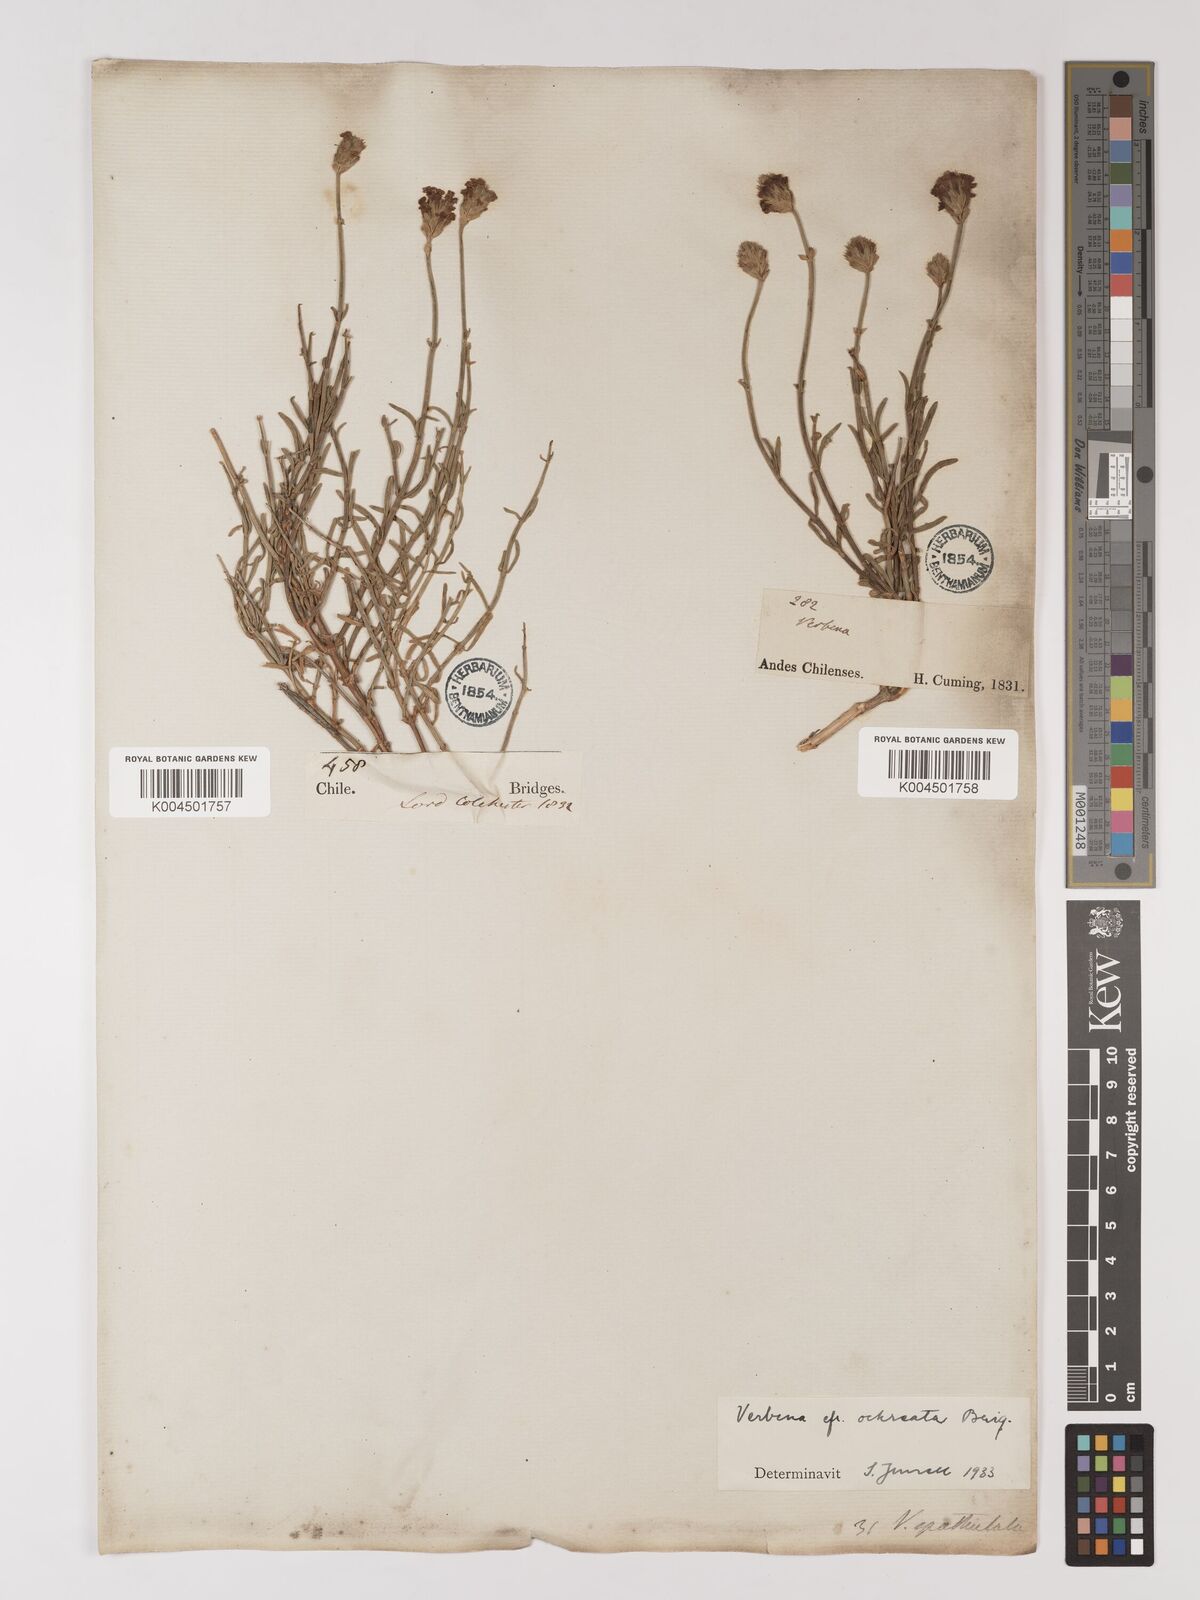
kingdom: Plantae
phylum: Tracheophyta
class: Magnoliopsida
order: Lamiales
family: Verbenaceae
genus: Junellia
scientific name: Junellia spathulata
